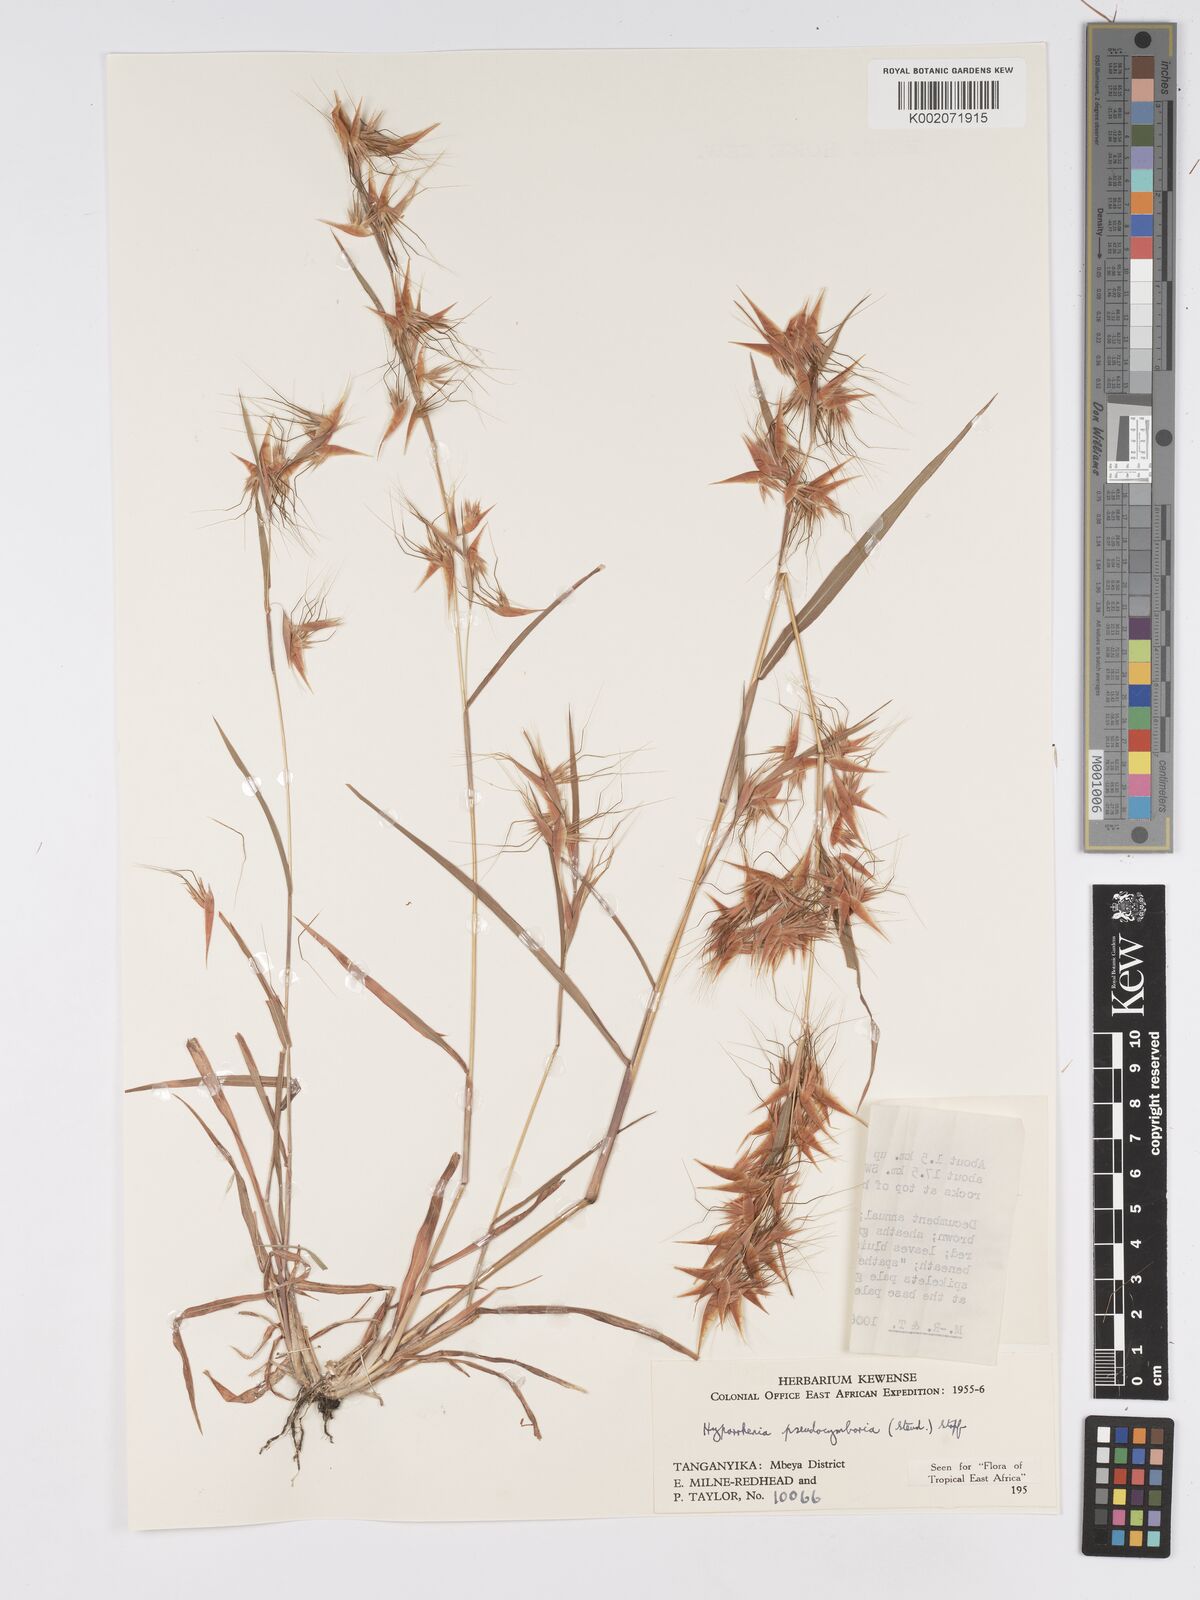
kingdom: Plantae
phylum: Tracheophyta
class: Liliopsida
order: Poales
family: Poaceae
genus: Hyparrhenia
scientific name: Hyparrhenia anthistirioides
